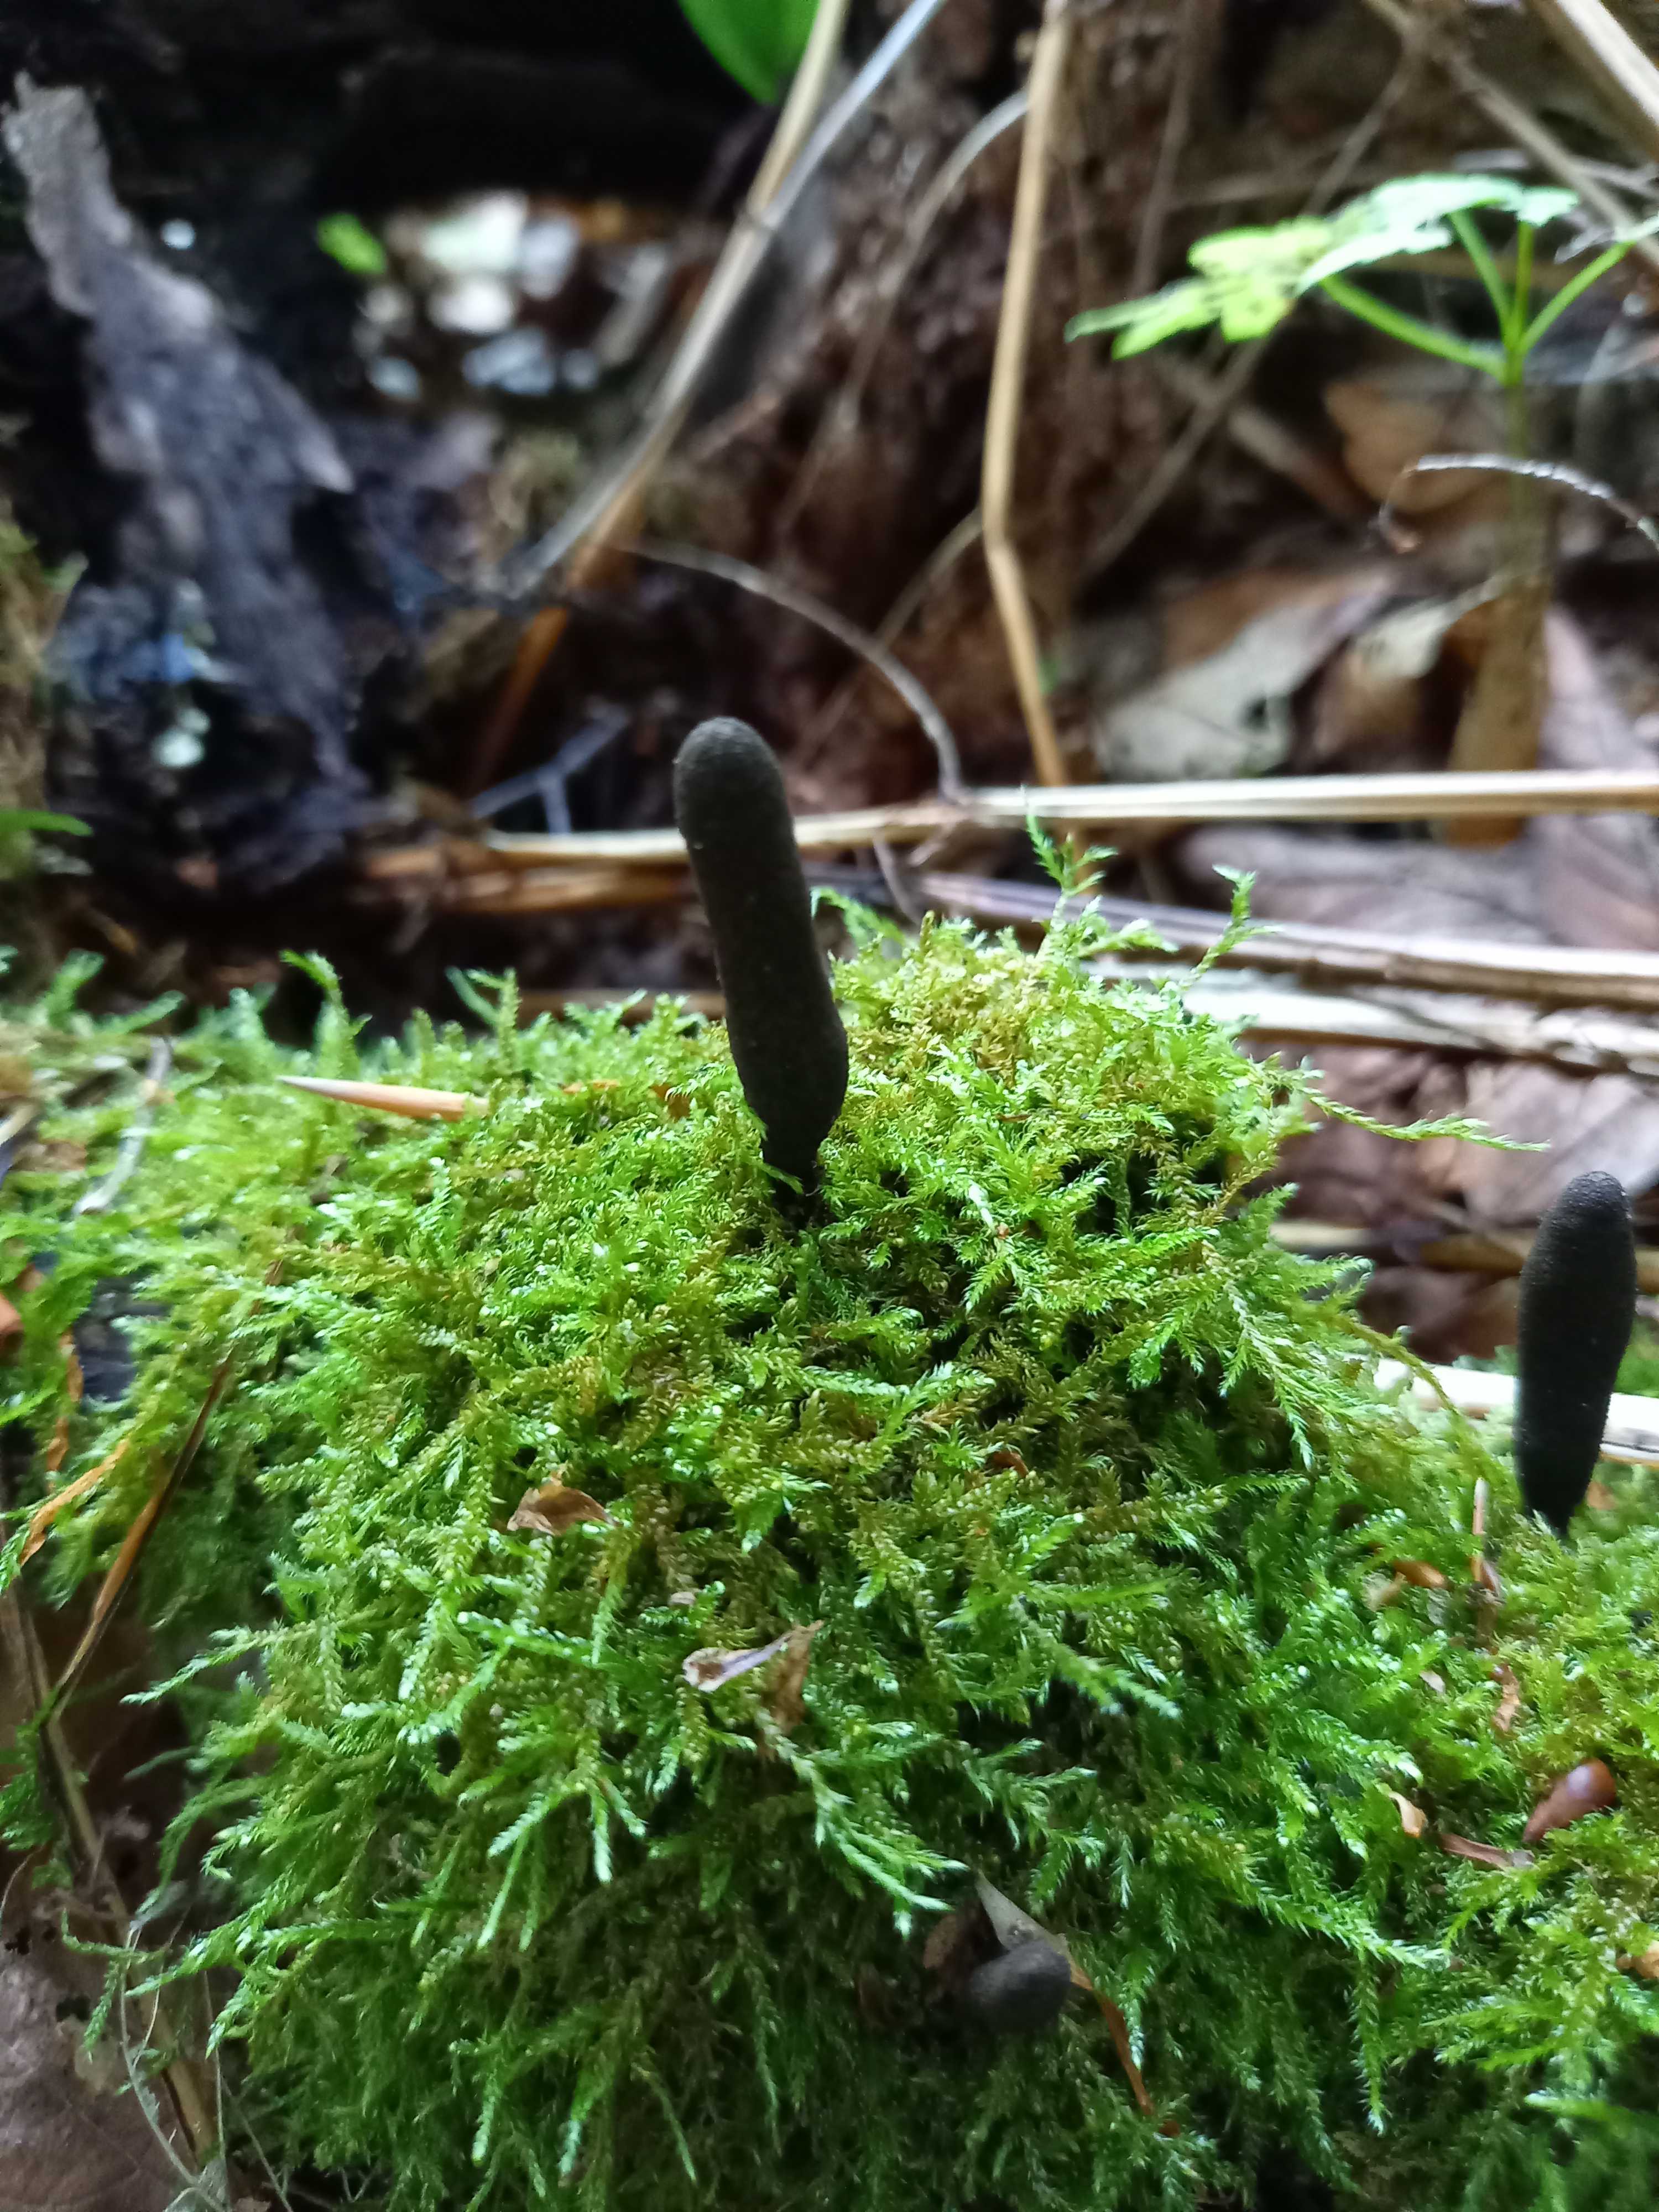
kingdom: Fungi
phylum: Ascomycota
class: Sordariomycetes
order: Xylariales
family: Xylariaceae
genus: Xylaria
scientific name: Xylaria longipes
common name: slank stødsvamp
